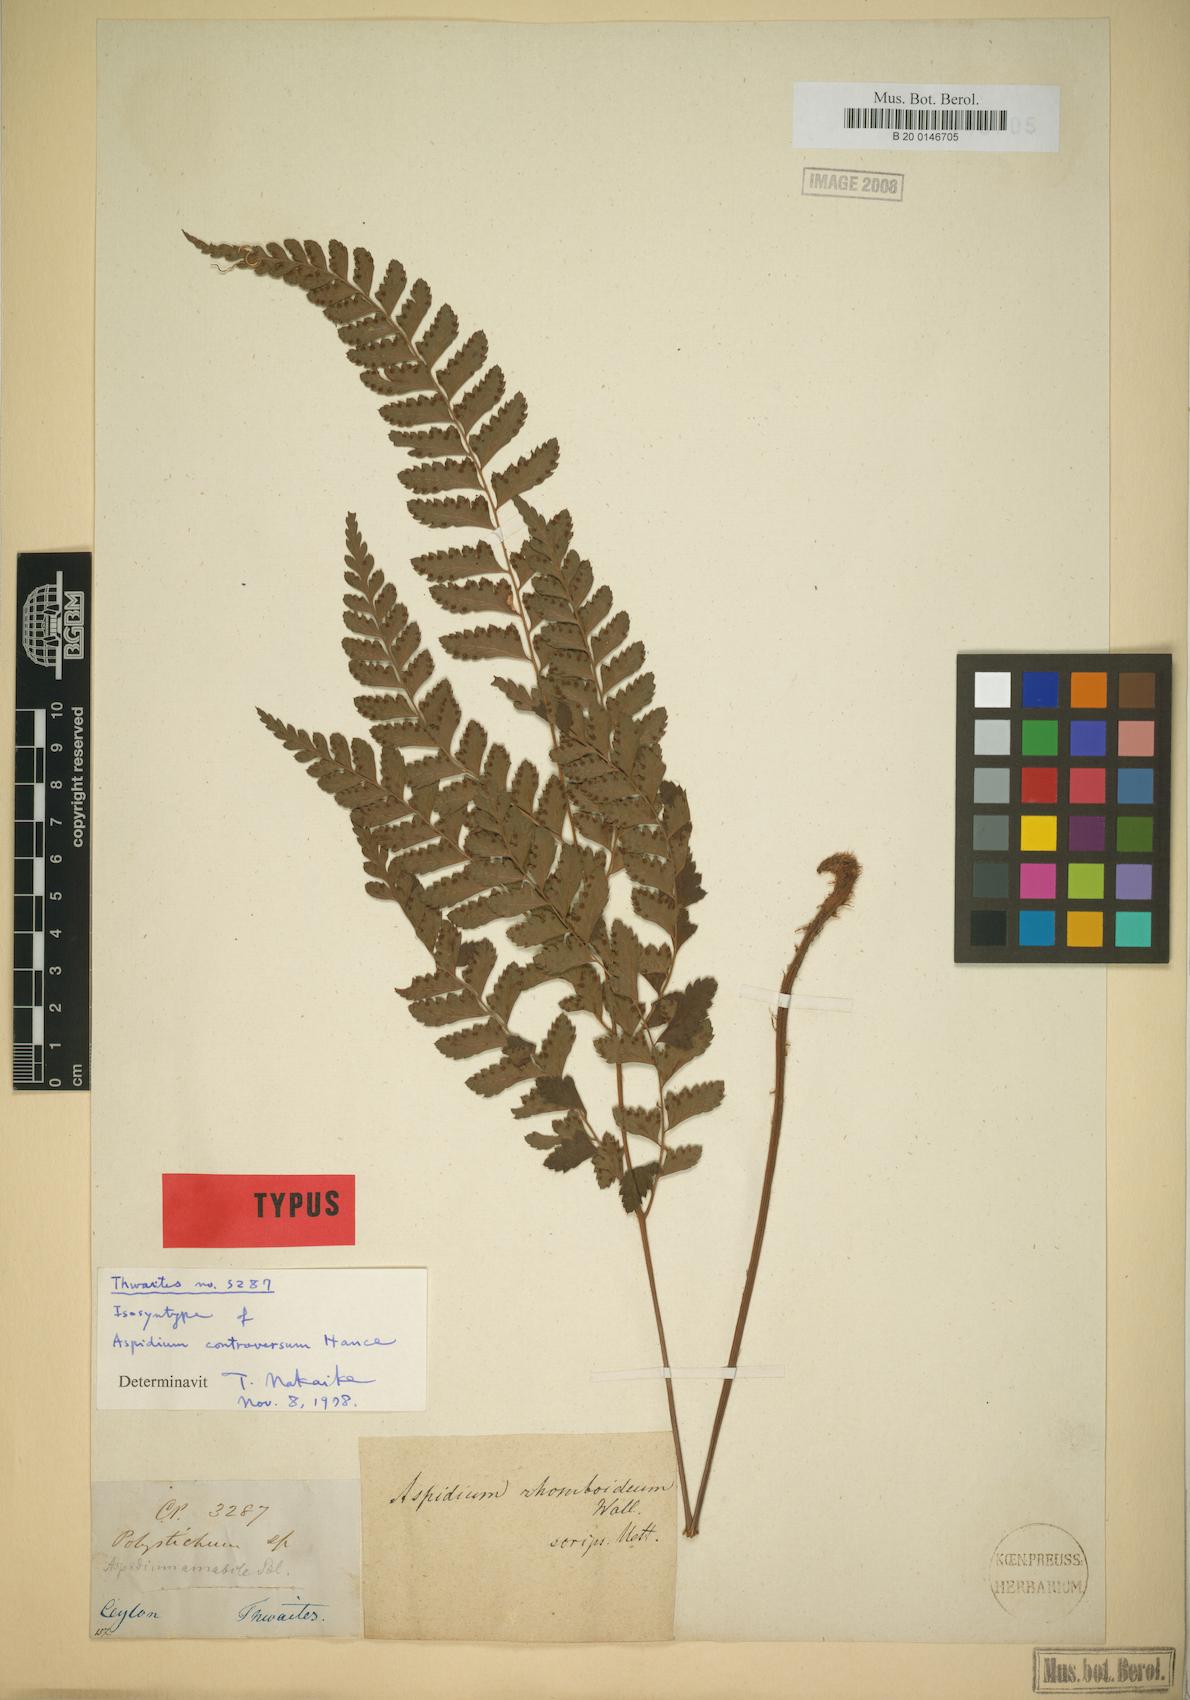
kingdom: Plantae
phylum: Tracheophyta
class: Polypodiopsida
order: Polypodiales
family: Dryopteridaceae
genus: Arachniodes
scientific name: Arachniodes amabilis
